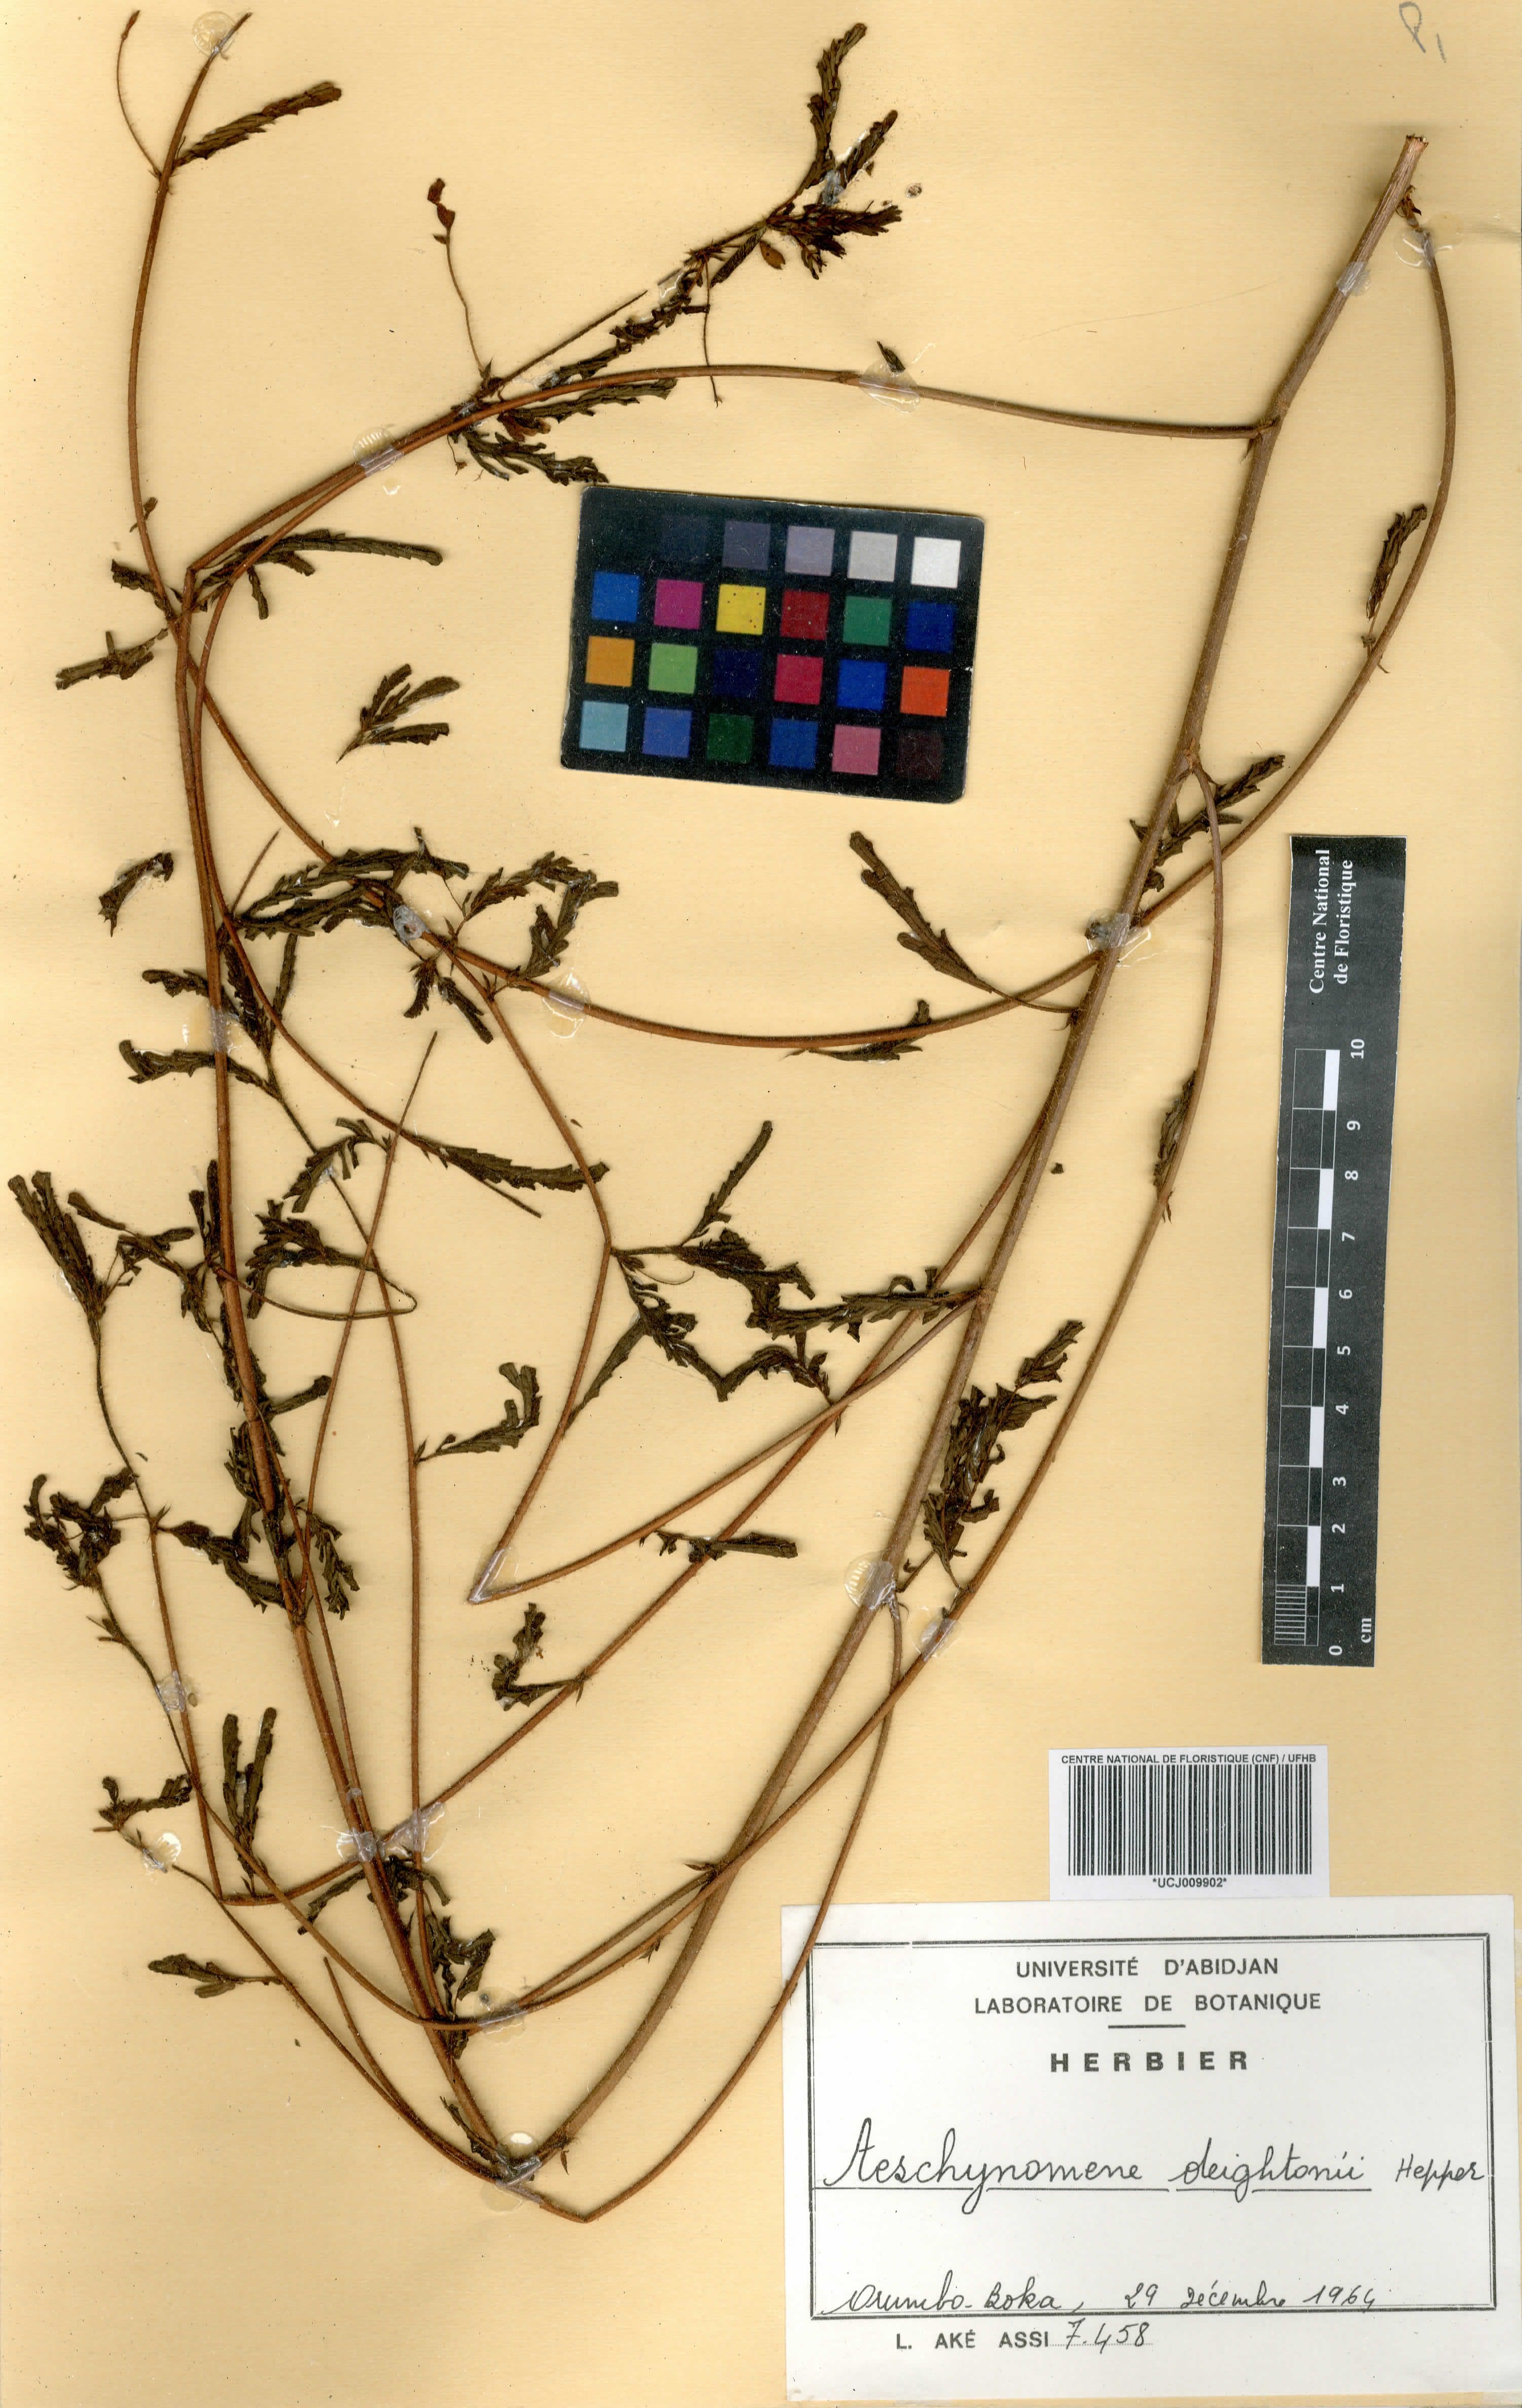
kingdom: Plantae
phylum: Tracheophyta
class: Magnoliopsida
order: Fabales
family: Fabaceae
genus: Aeschynomene
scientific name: Aeschynomene deightonii
